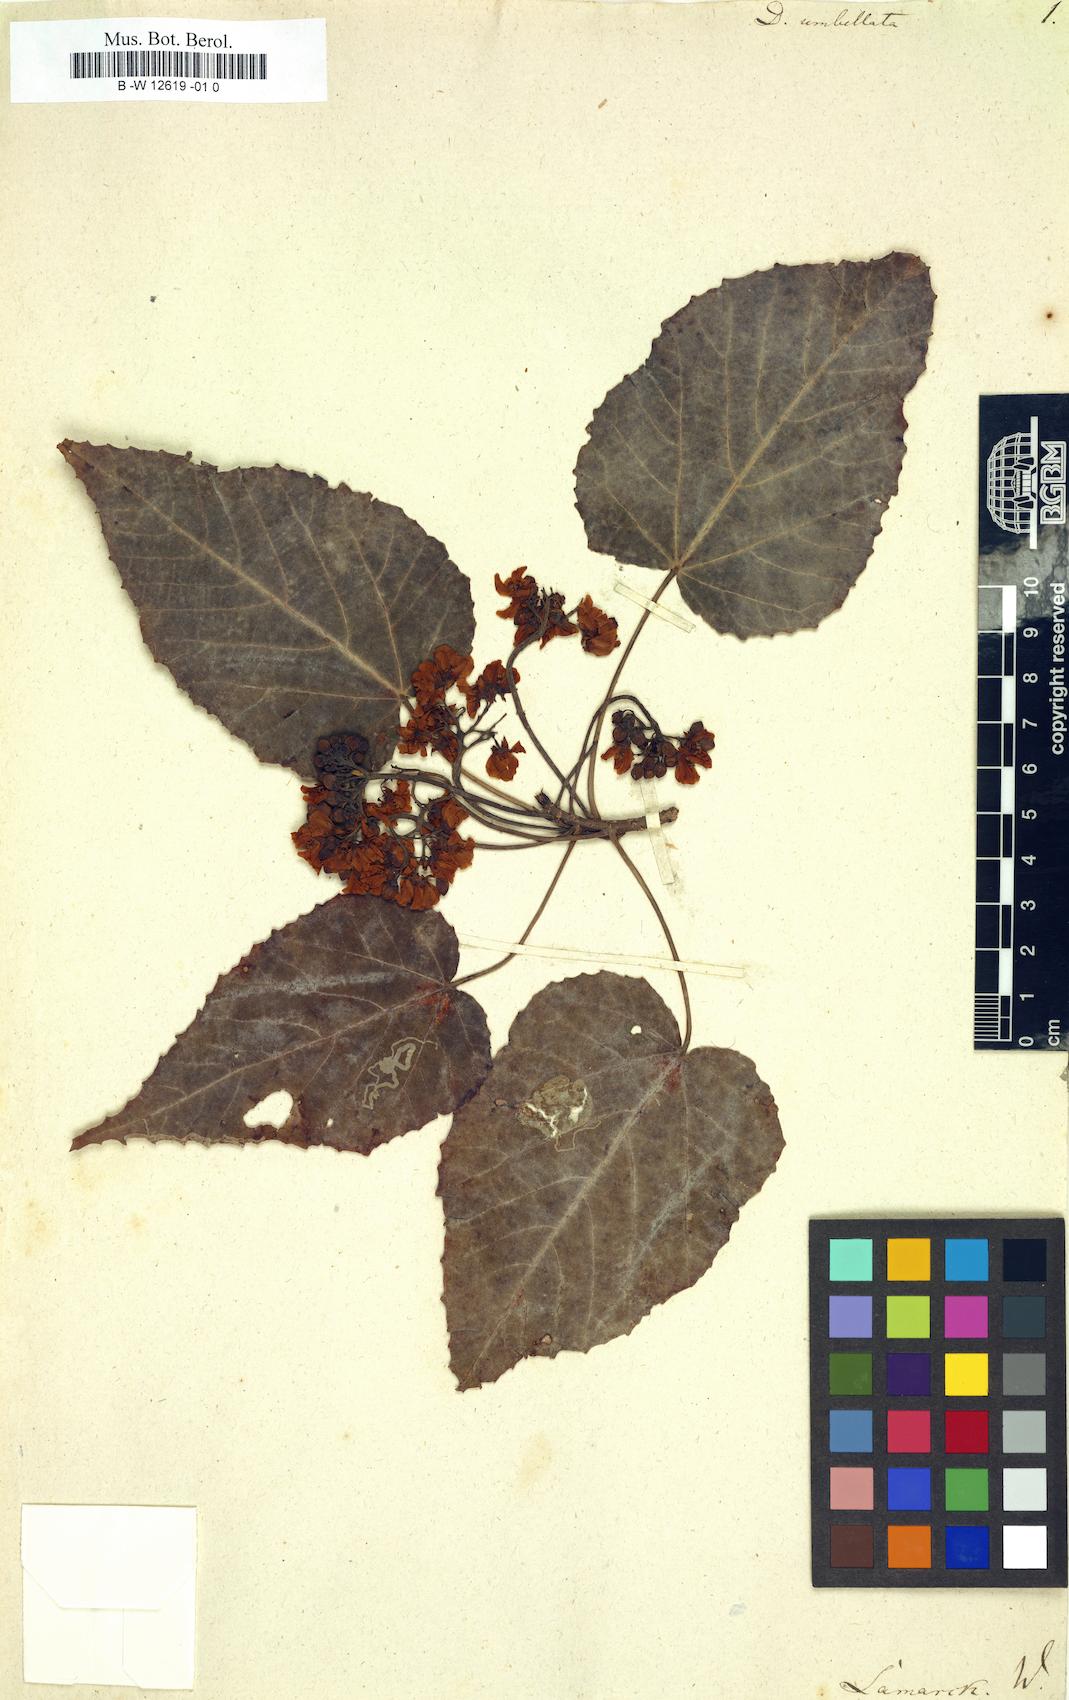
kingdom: Plantae
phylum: Tracheophyta
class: Magnoliopsida
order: Malvales
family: Malvaceae
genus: Dombeya
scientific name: Dombeya umbellata
